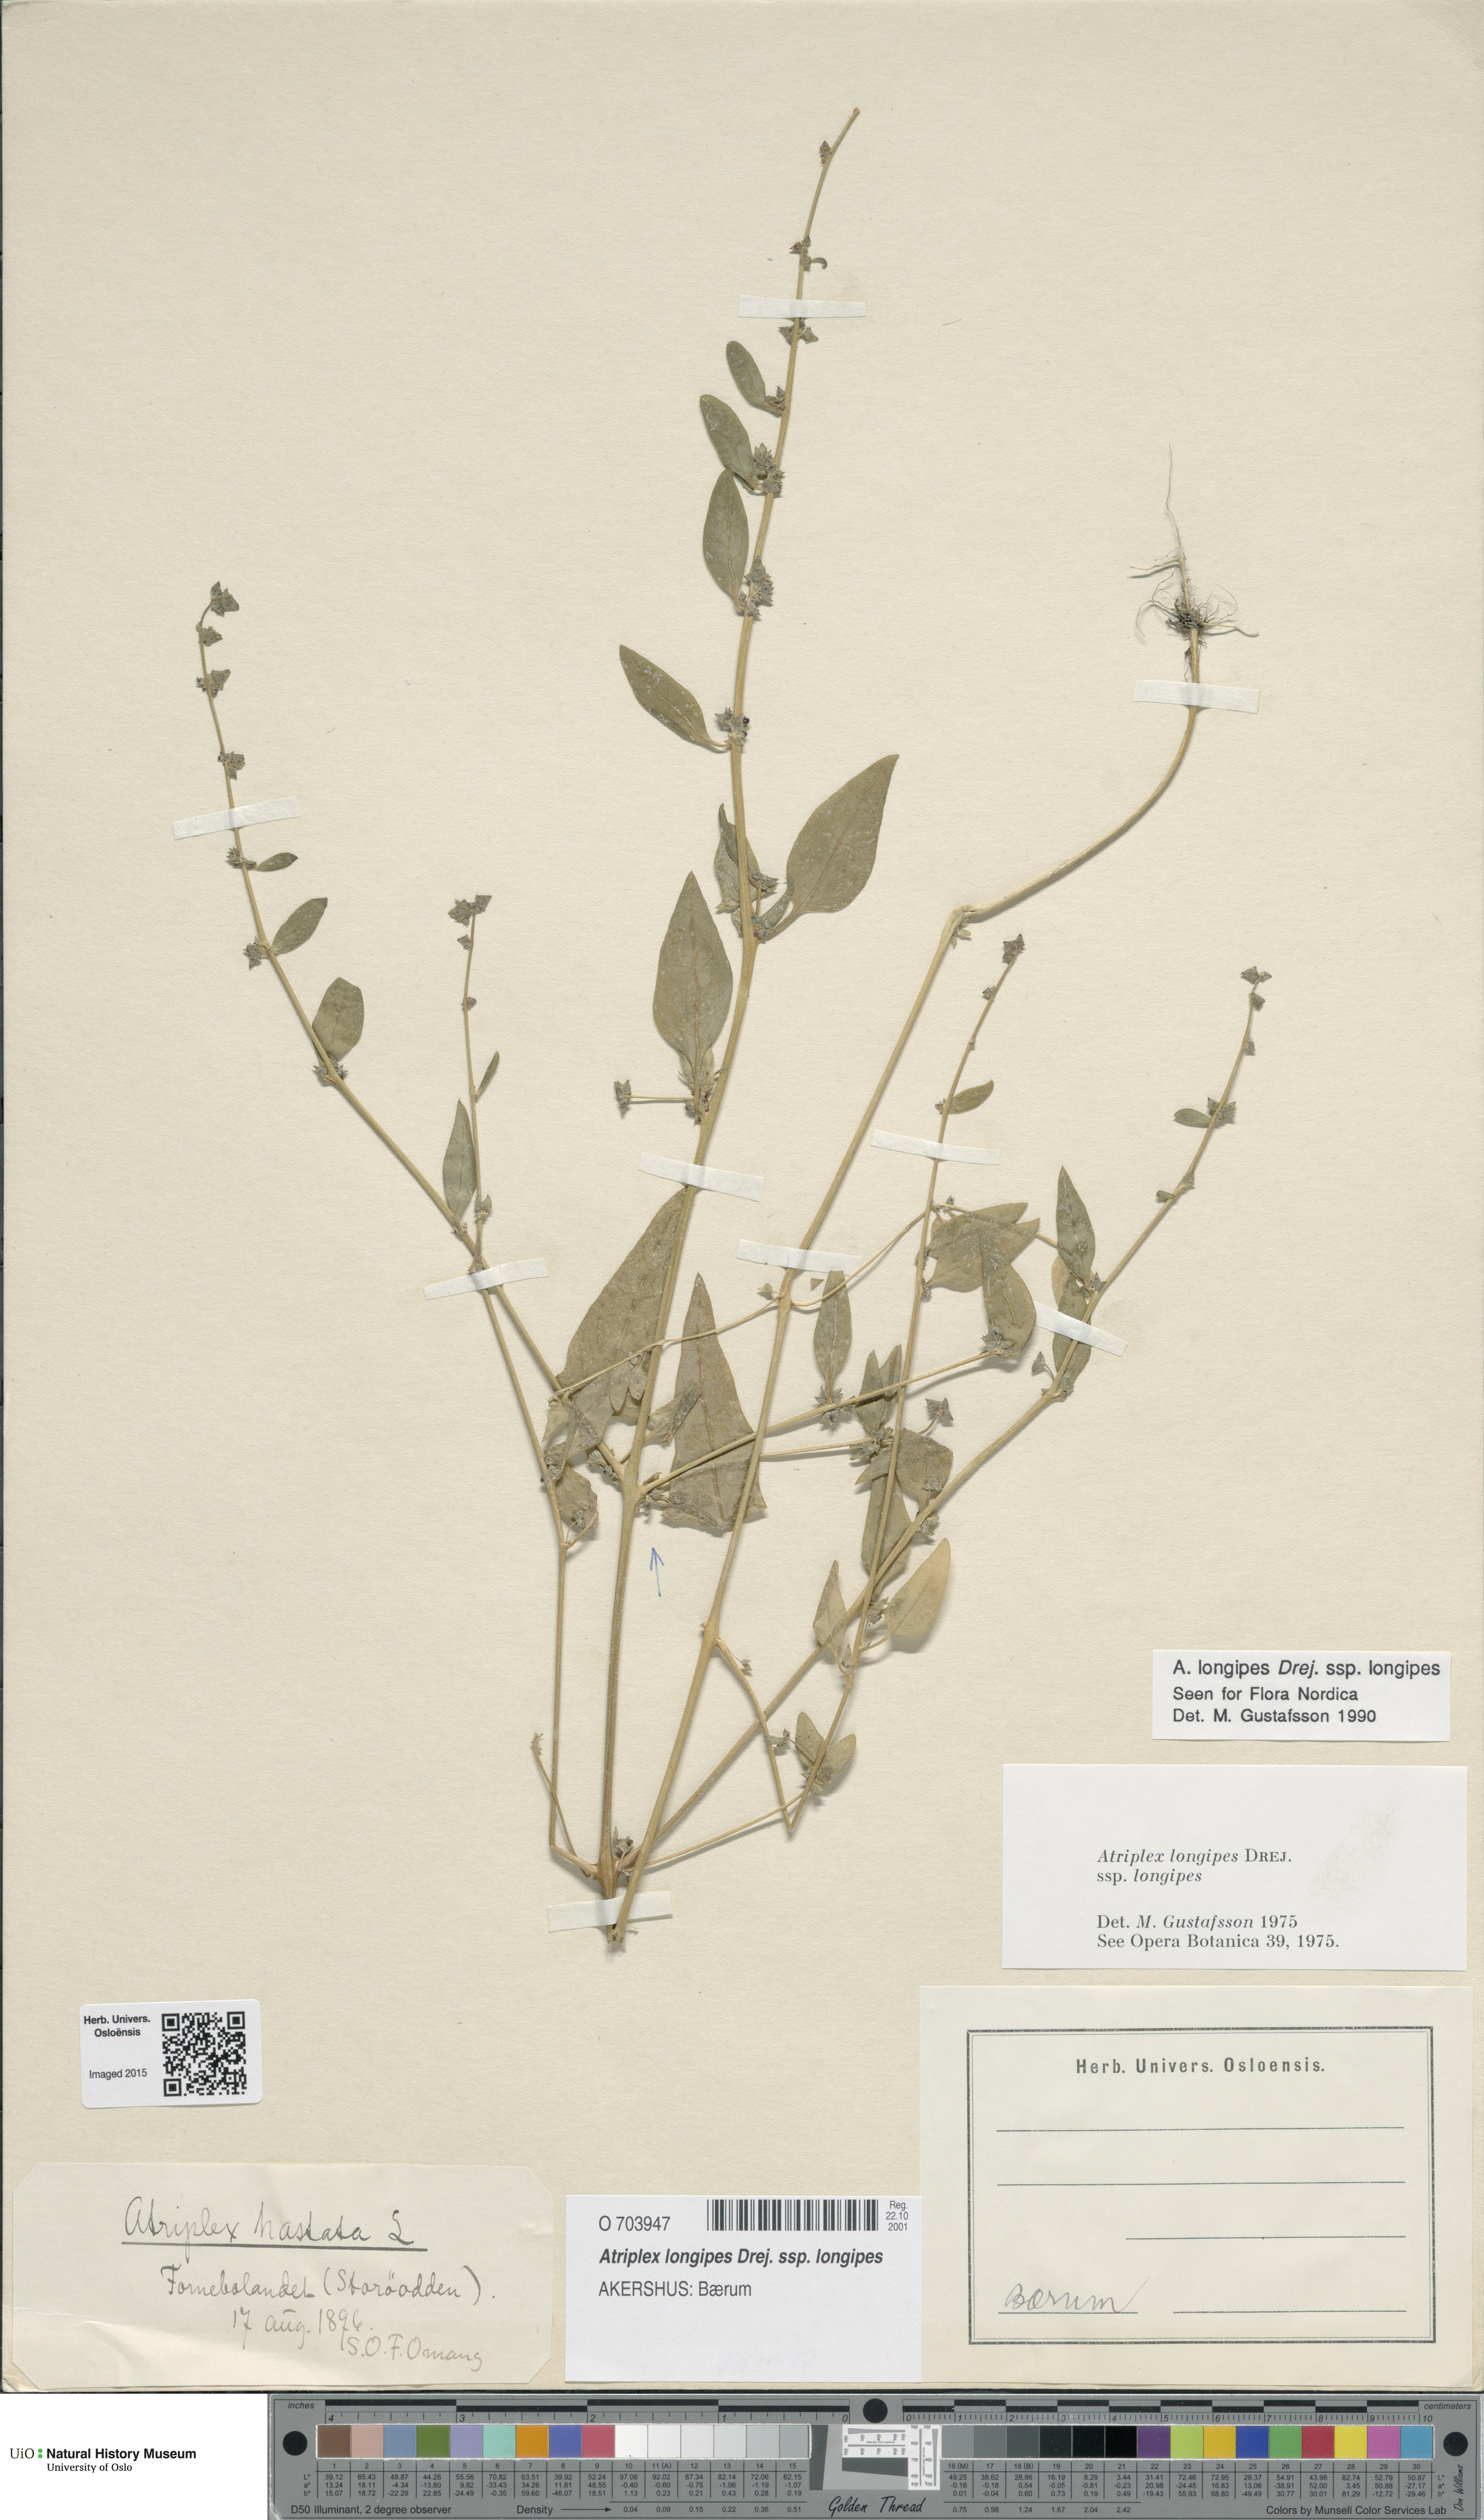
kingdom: Plantae
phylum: Tracheophyta
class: Magnoliopsida
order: Caryophyllales
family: Amaranthaceae
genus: Atriplex
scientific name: Atriplex longipes
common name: Long-stalked orache
